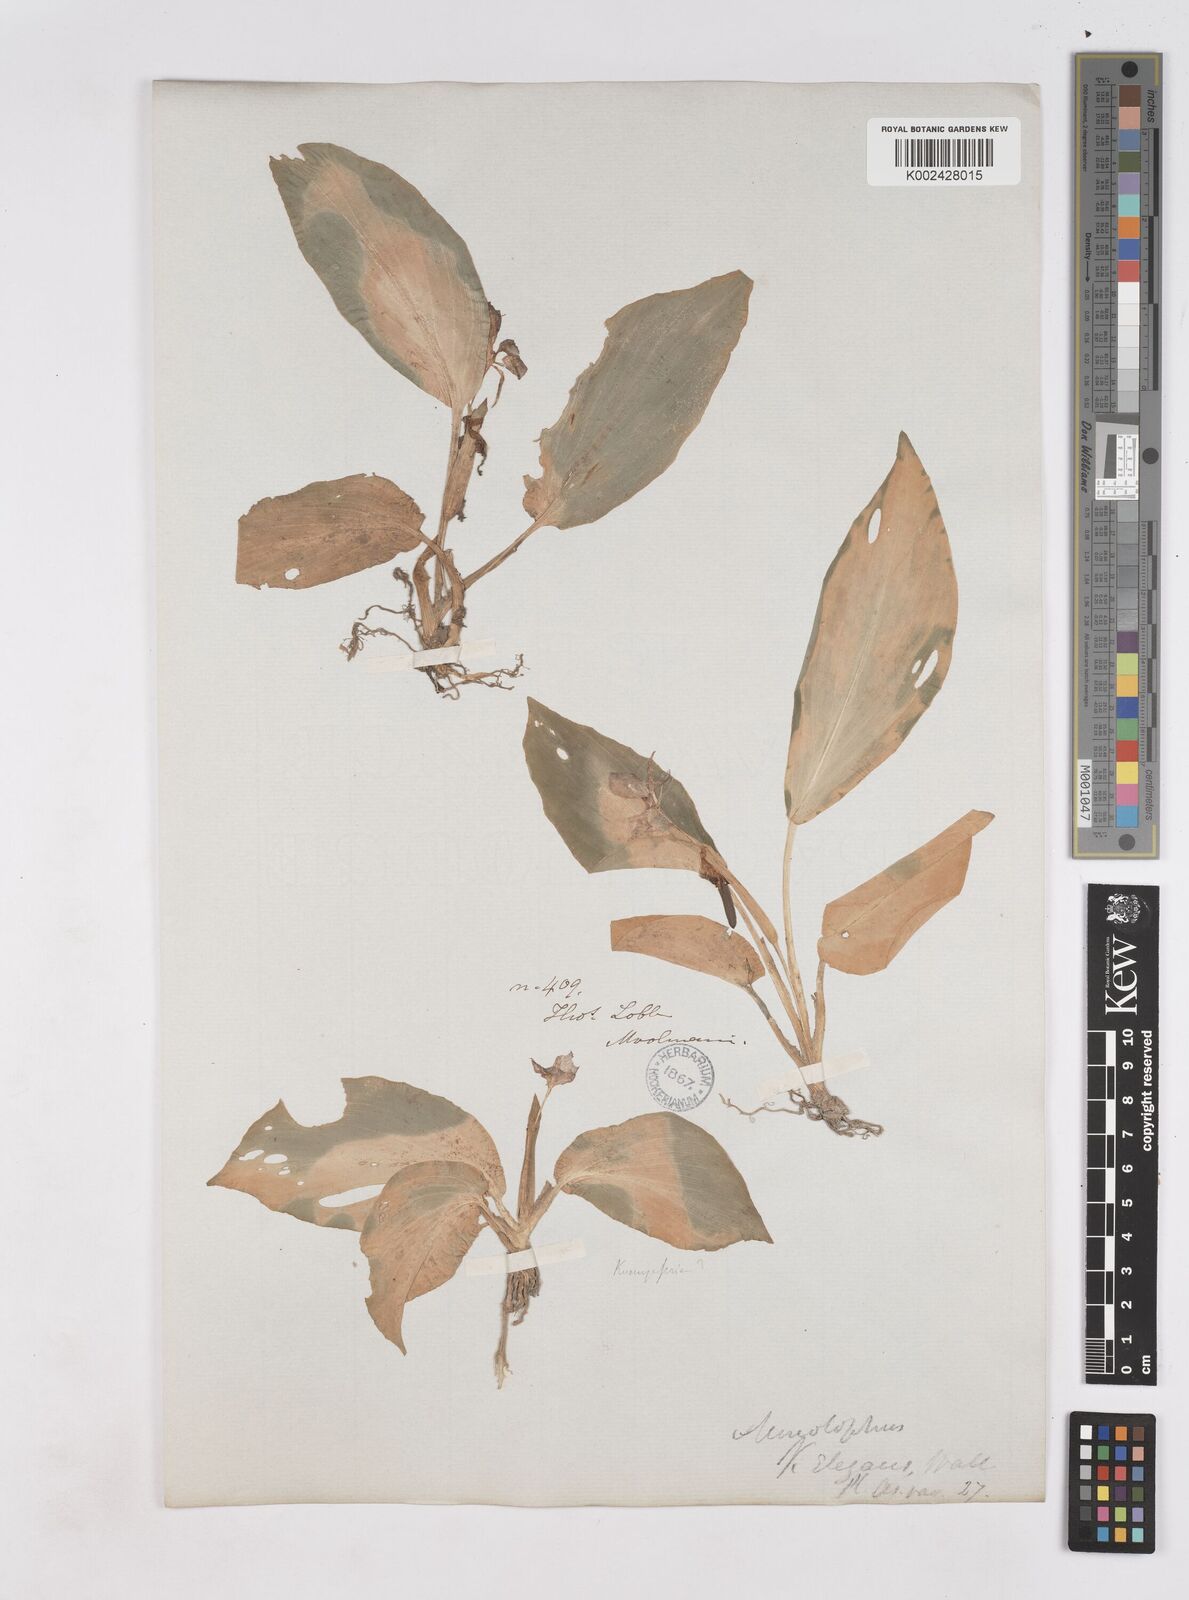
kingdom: Plantae
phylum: Tracheophyta
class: Liliopsida
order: Zingiberales
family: Zingiberaceae
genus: Kaempferia
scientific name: Kaempferia elegans
